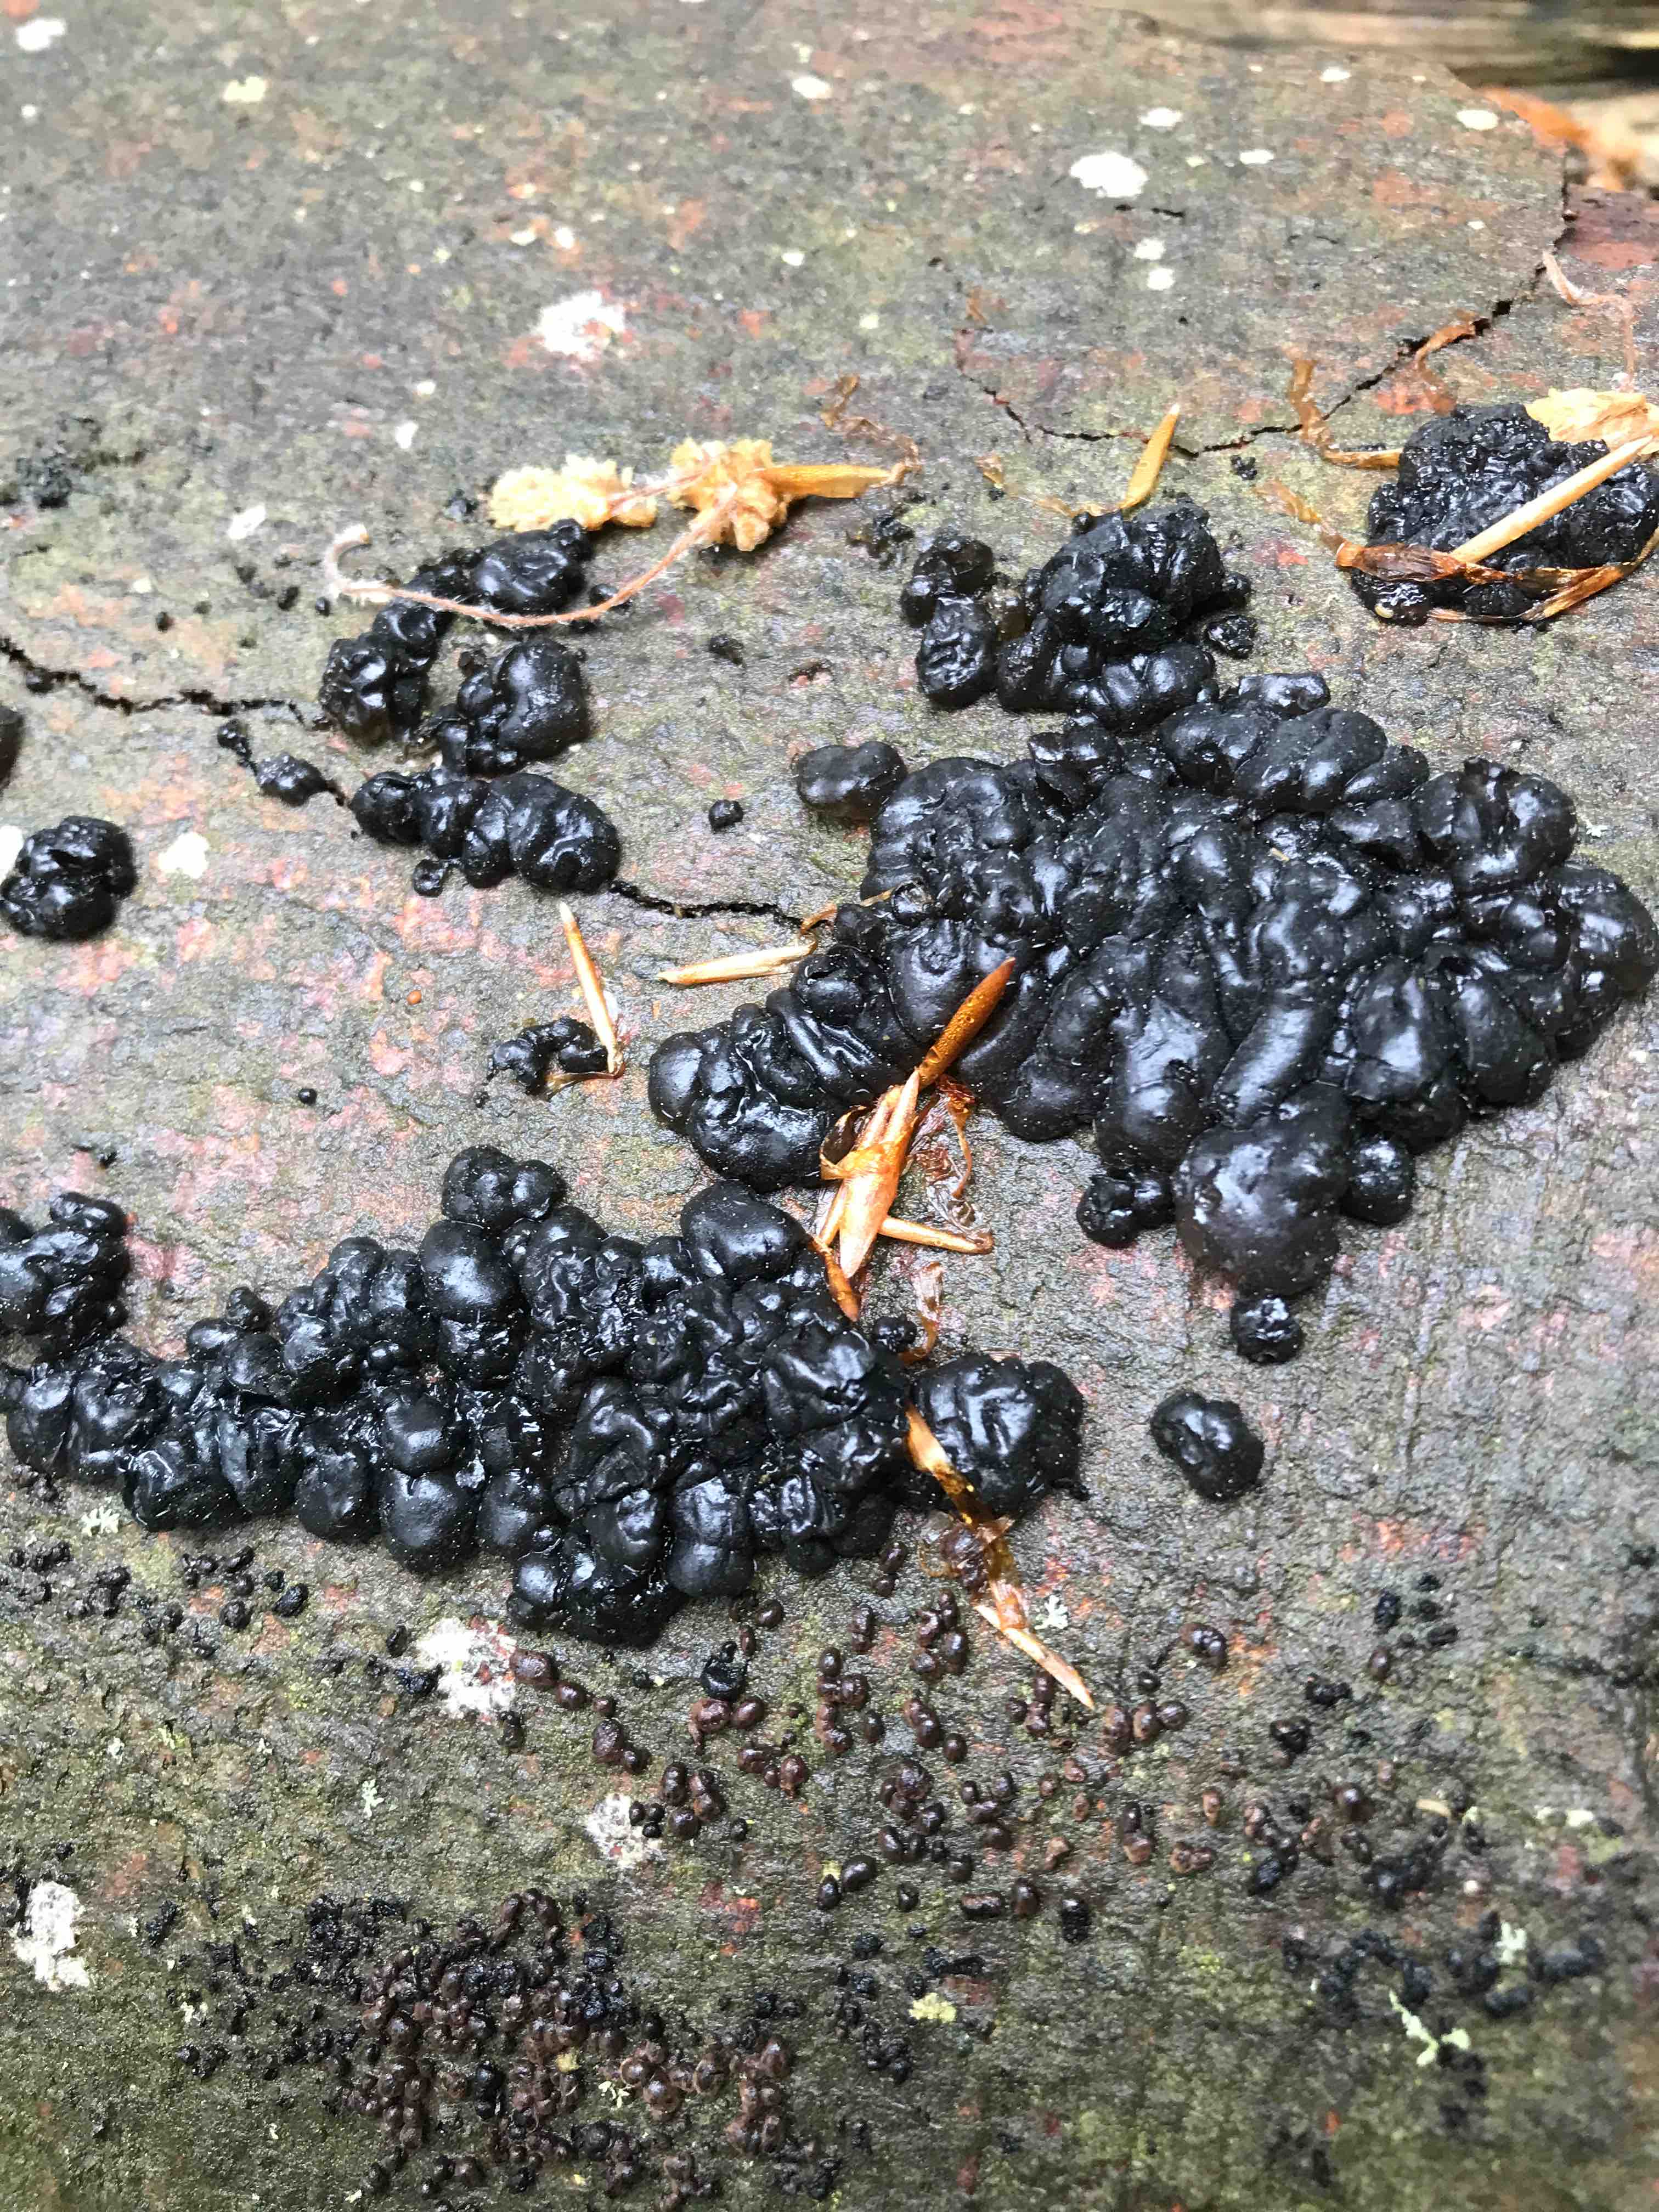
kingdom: Fungi
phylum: Basidiomycota
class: Agaricomycetes
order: Auriculariales
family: Auriculariaceae
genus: Exidia
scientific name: Exidia nigricans
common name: almindelig bævretop
